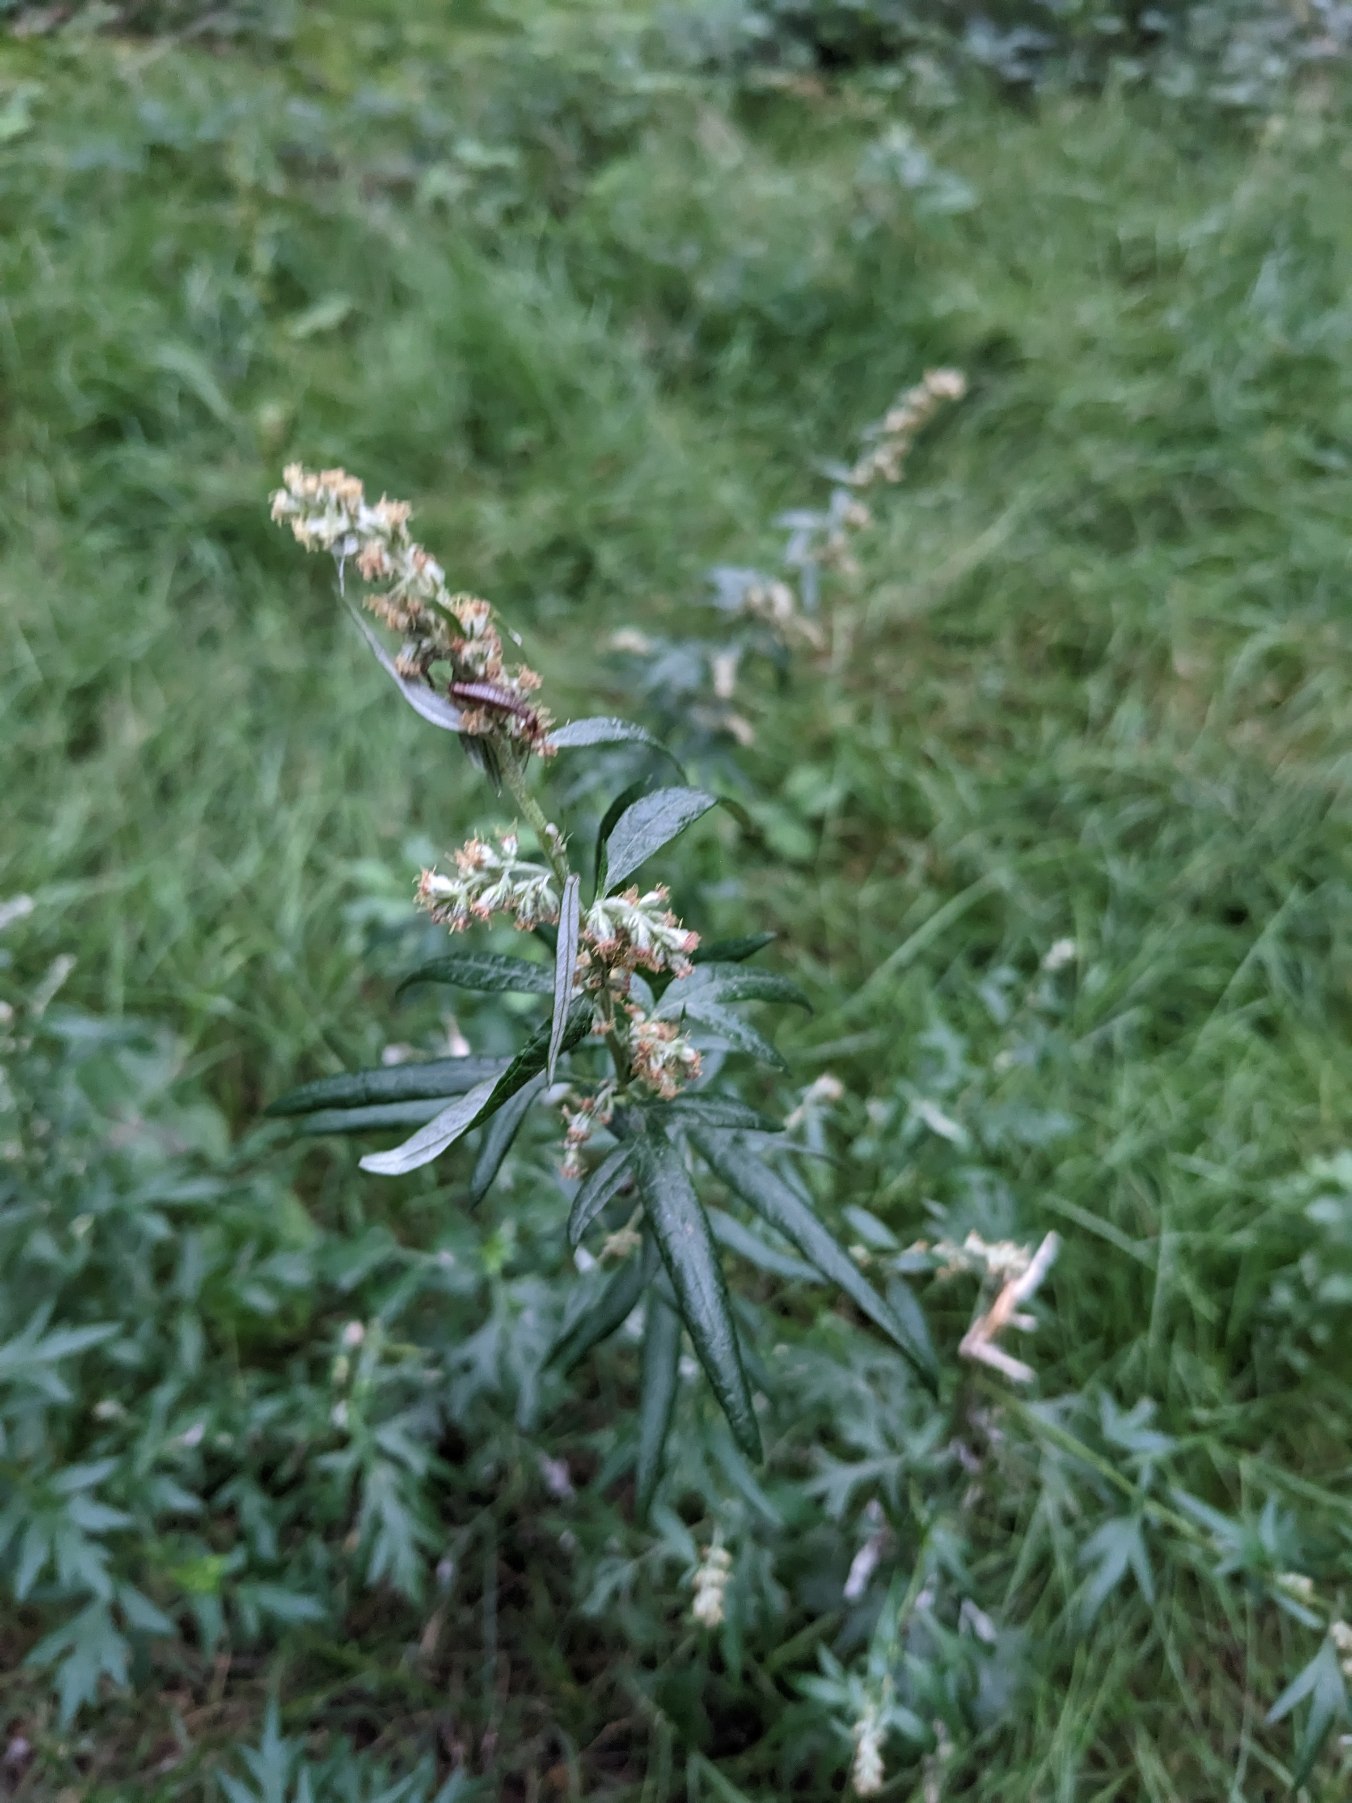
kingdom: Plantae
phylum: Tracheophyta
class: Magnoliopsida
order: Asterales
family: Asteraceae
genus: Artemisia
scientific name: Artemisia vulgaris
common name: Grå-bynke
